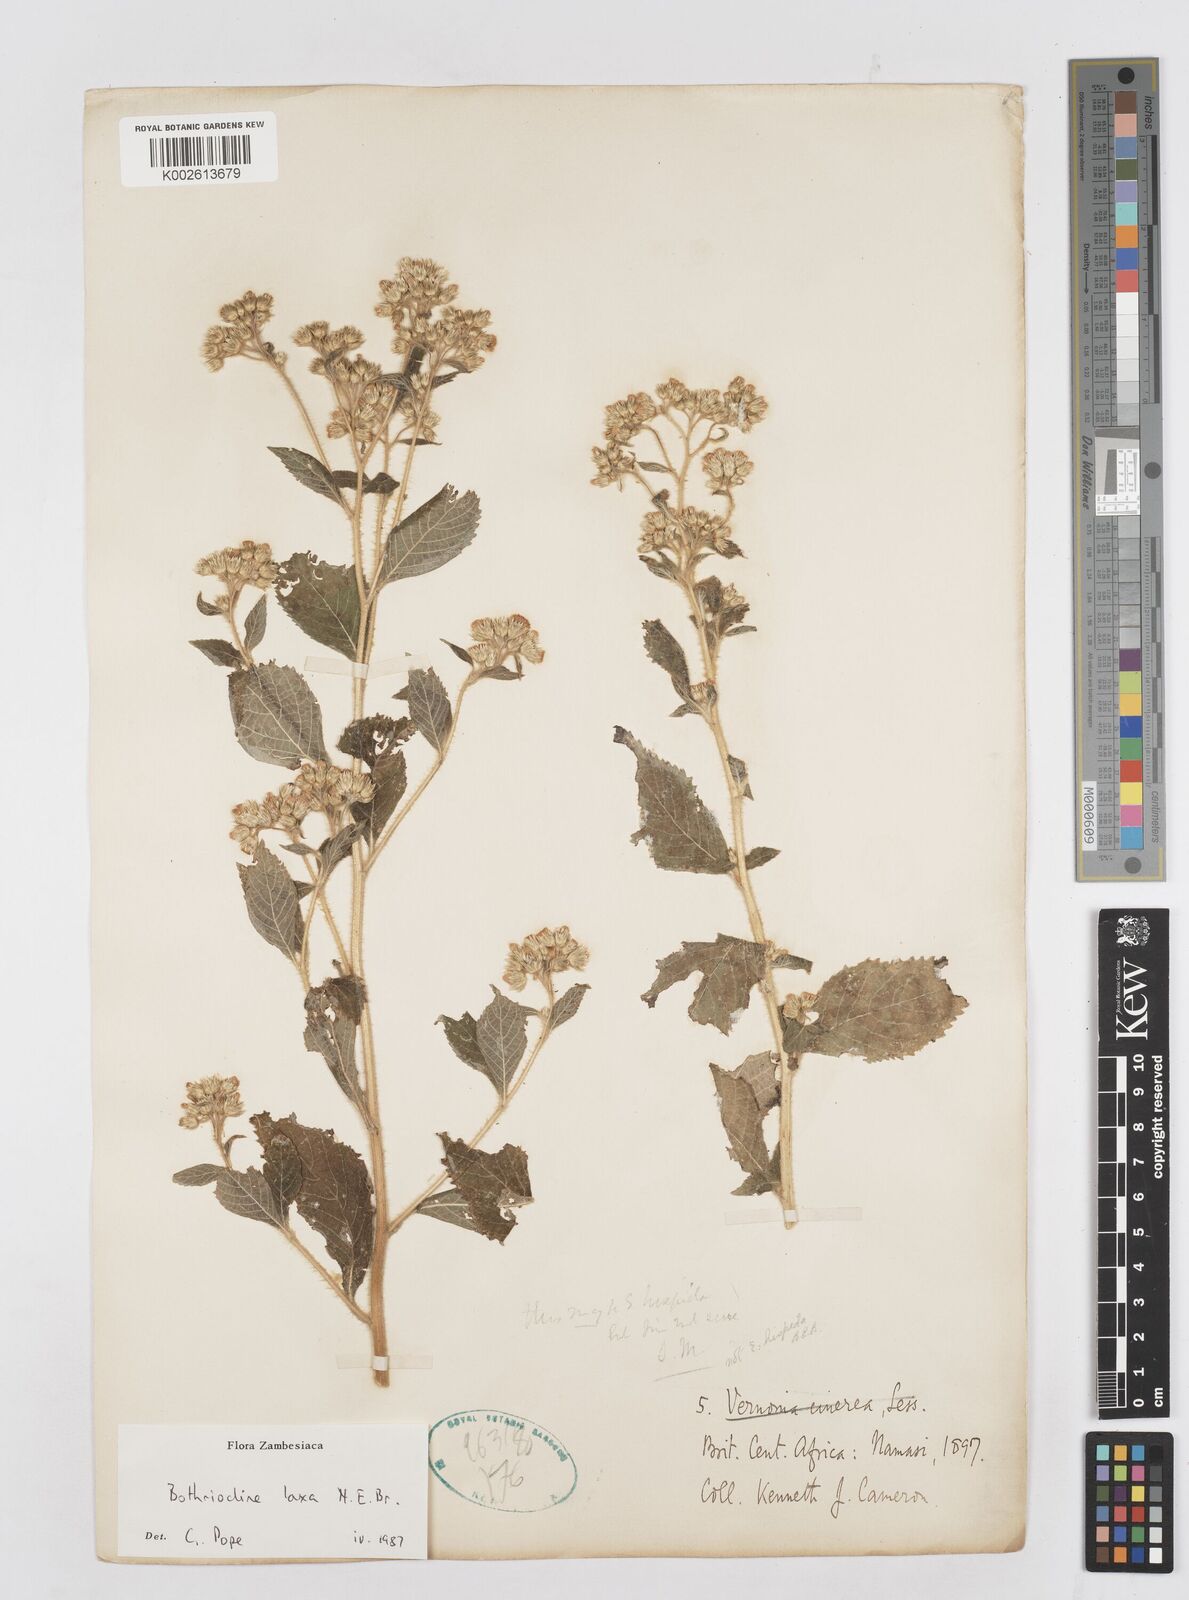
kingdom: Plantae
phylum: Tracheophyta
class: Magnoliopsida
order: Asterales
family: Asteraceae
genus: Bothriocline
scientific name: Bothriocline laxa
